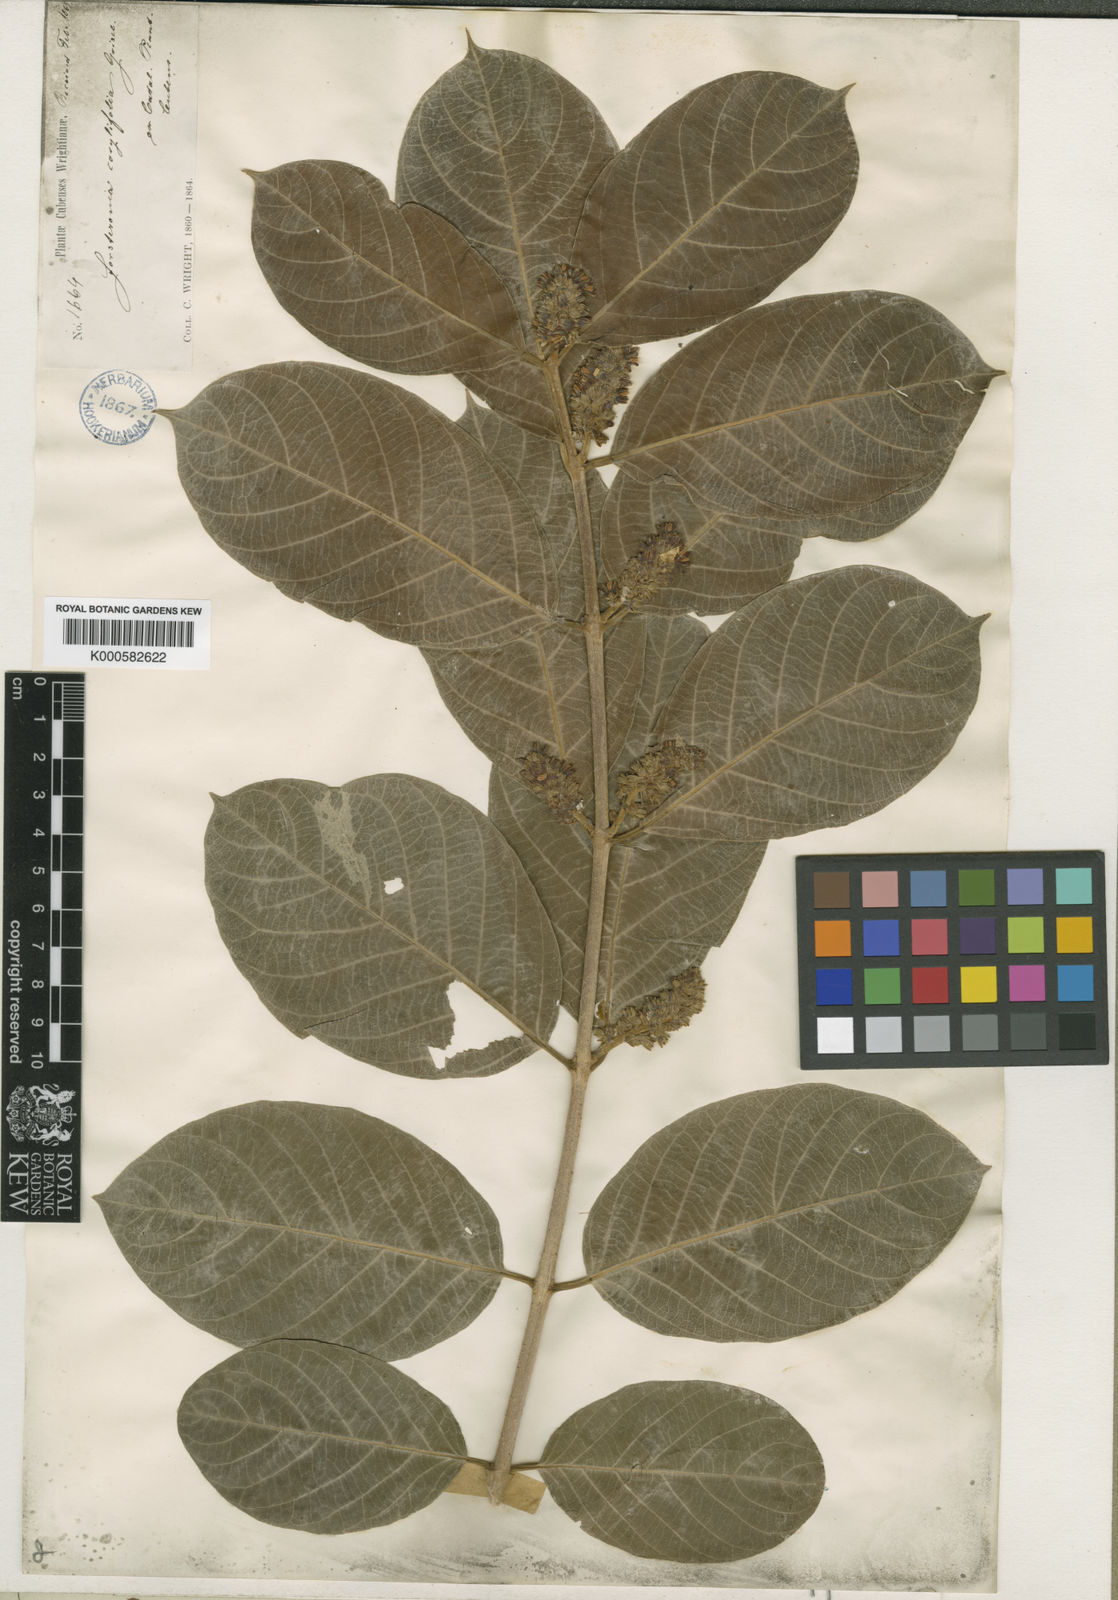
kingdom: Plantae
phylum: Tracheophyta
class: Magnoliopsida
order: Gentianales
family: Apocynaceae
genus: Forsteronia
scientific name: Forsteronia spicata
